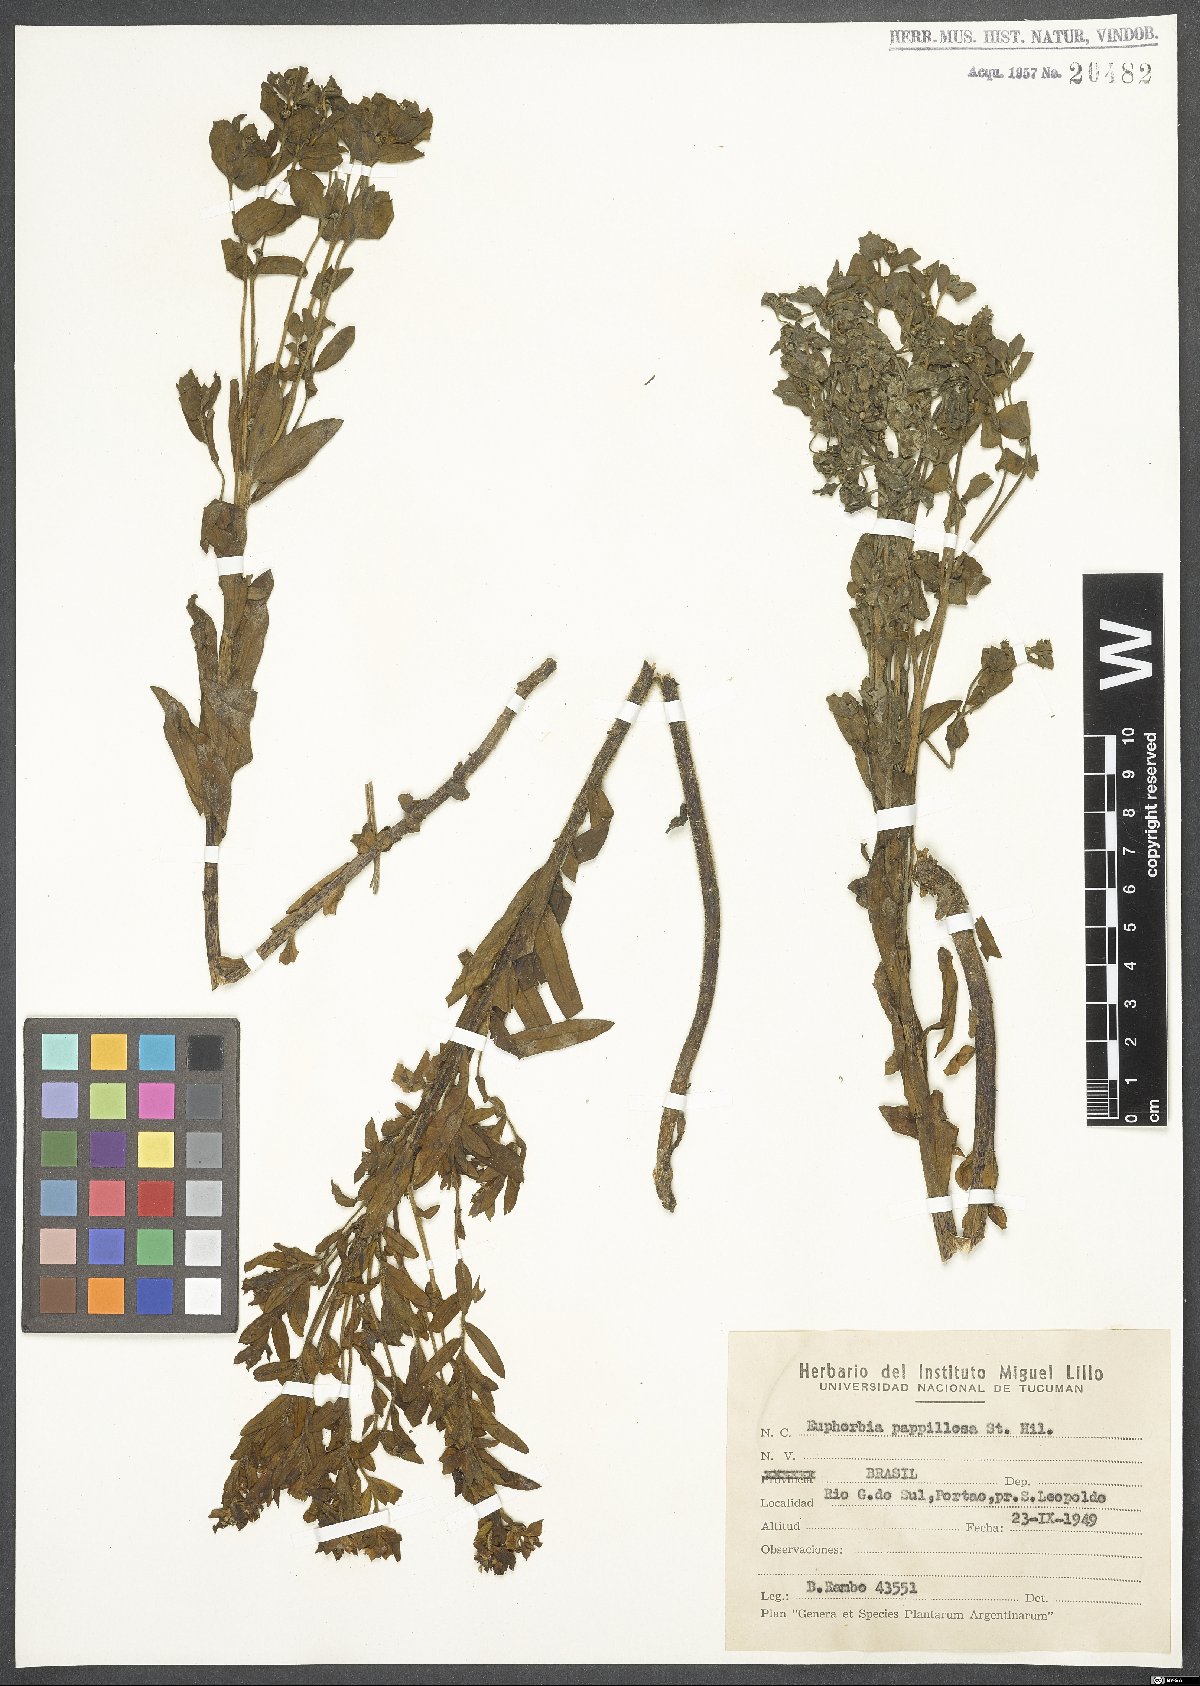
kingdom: Plantae
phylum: Tracheophyta
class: Magnoliopsida
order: Malpighiales
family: Euphorbiaceae
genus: Euphorbia
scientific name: Euphorbia papillosa
